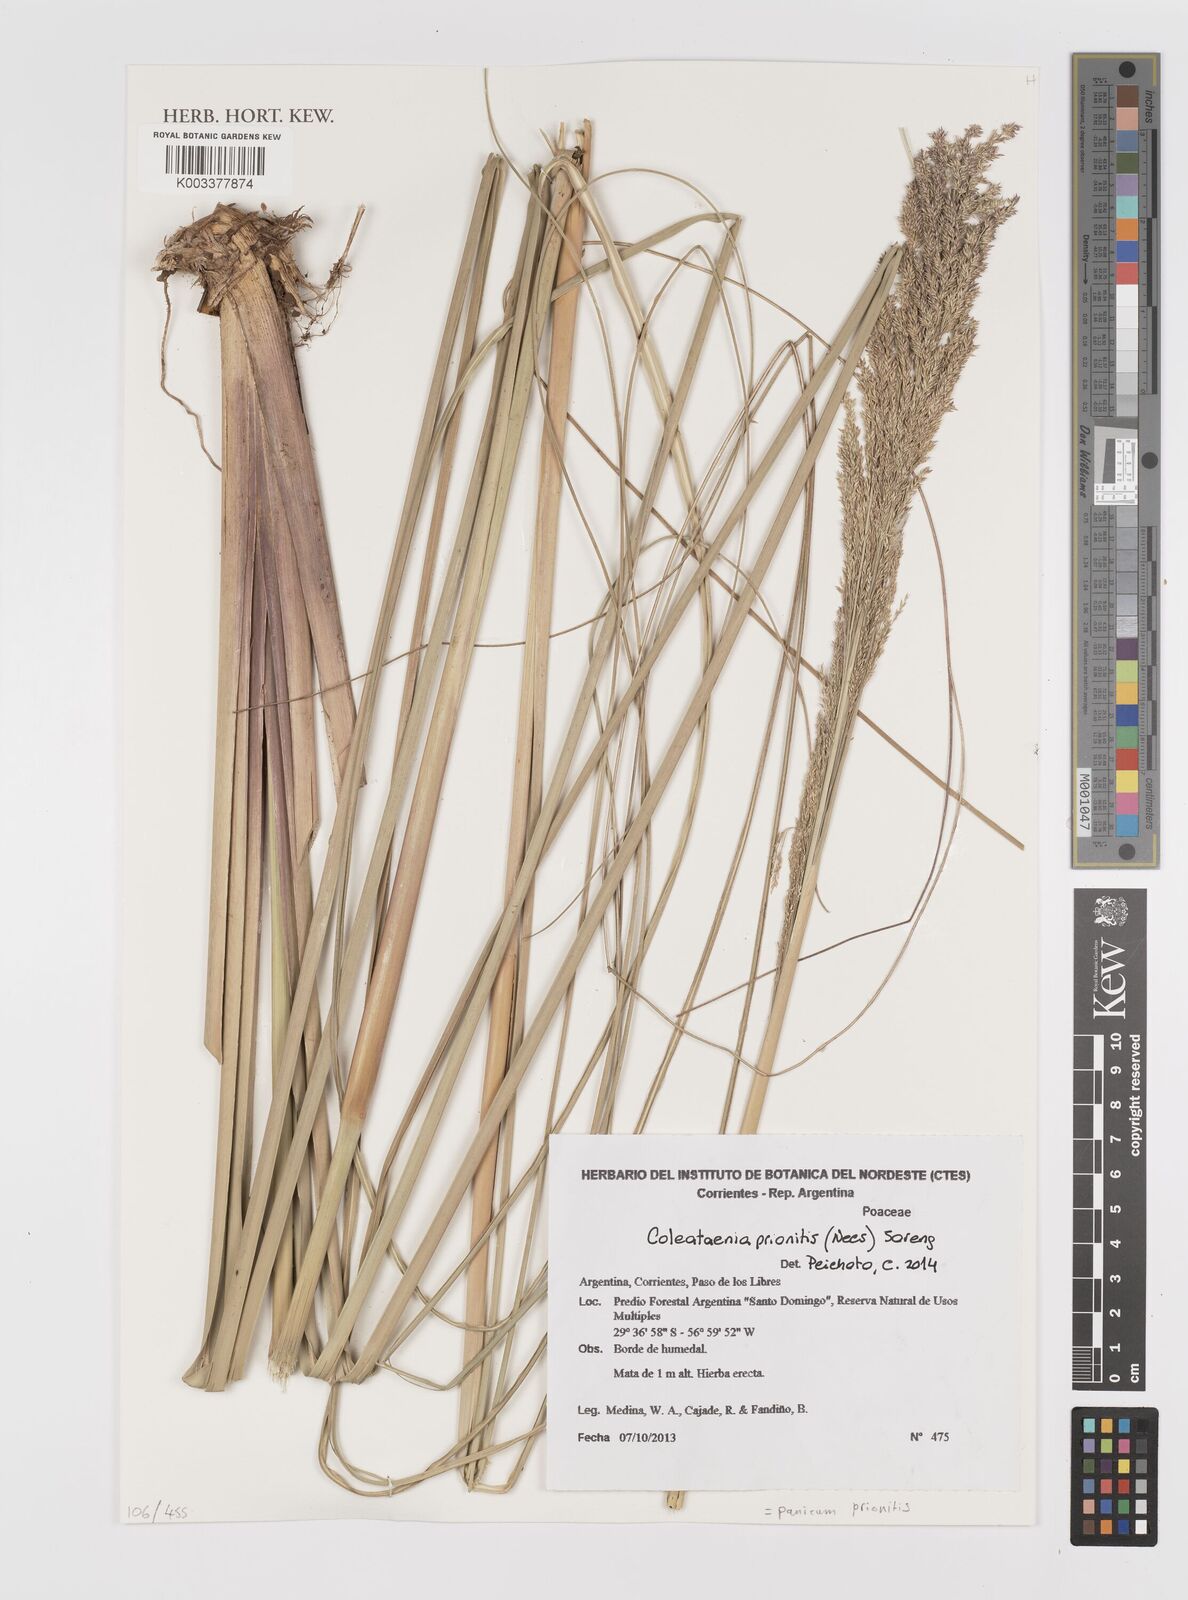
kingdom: Plantae
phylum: Tracheophyta
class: Liliopsida
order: Poales
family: Poaceae
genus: Coleataenia
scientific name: Coleataenia prionitis
